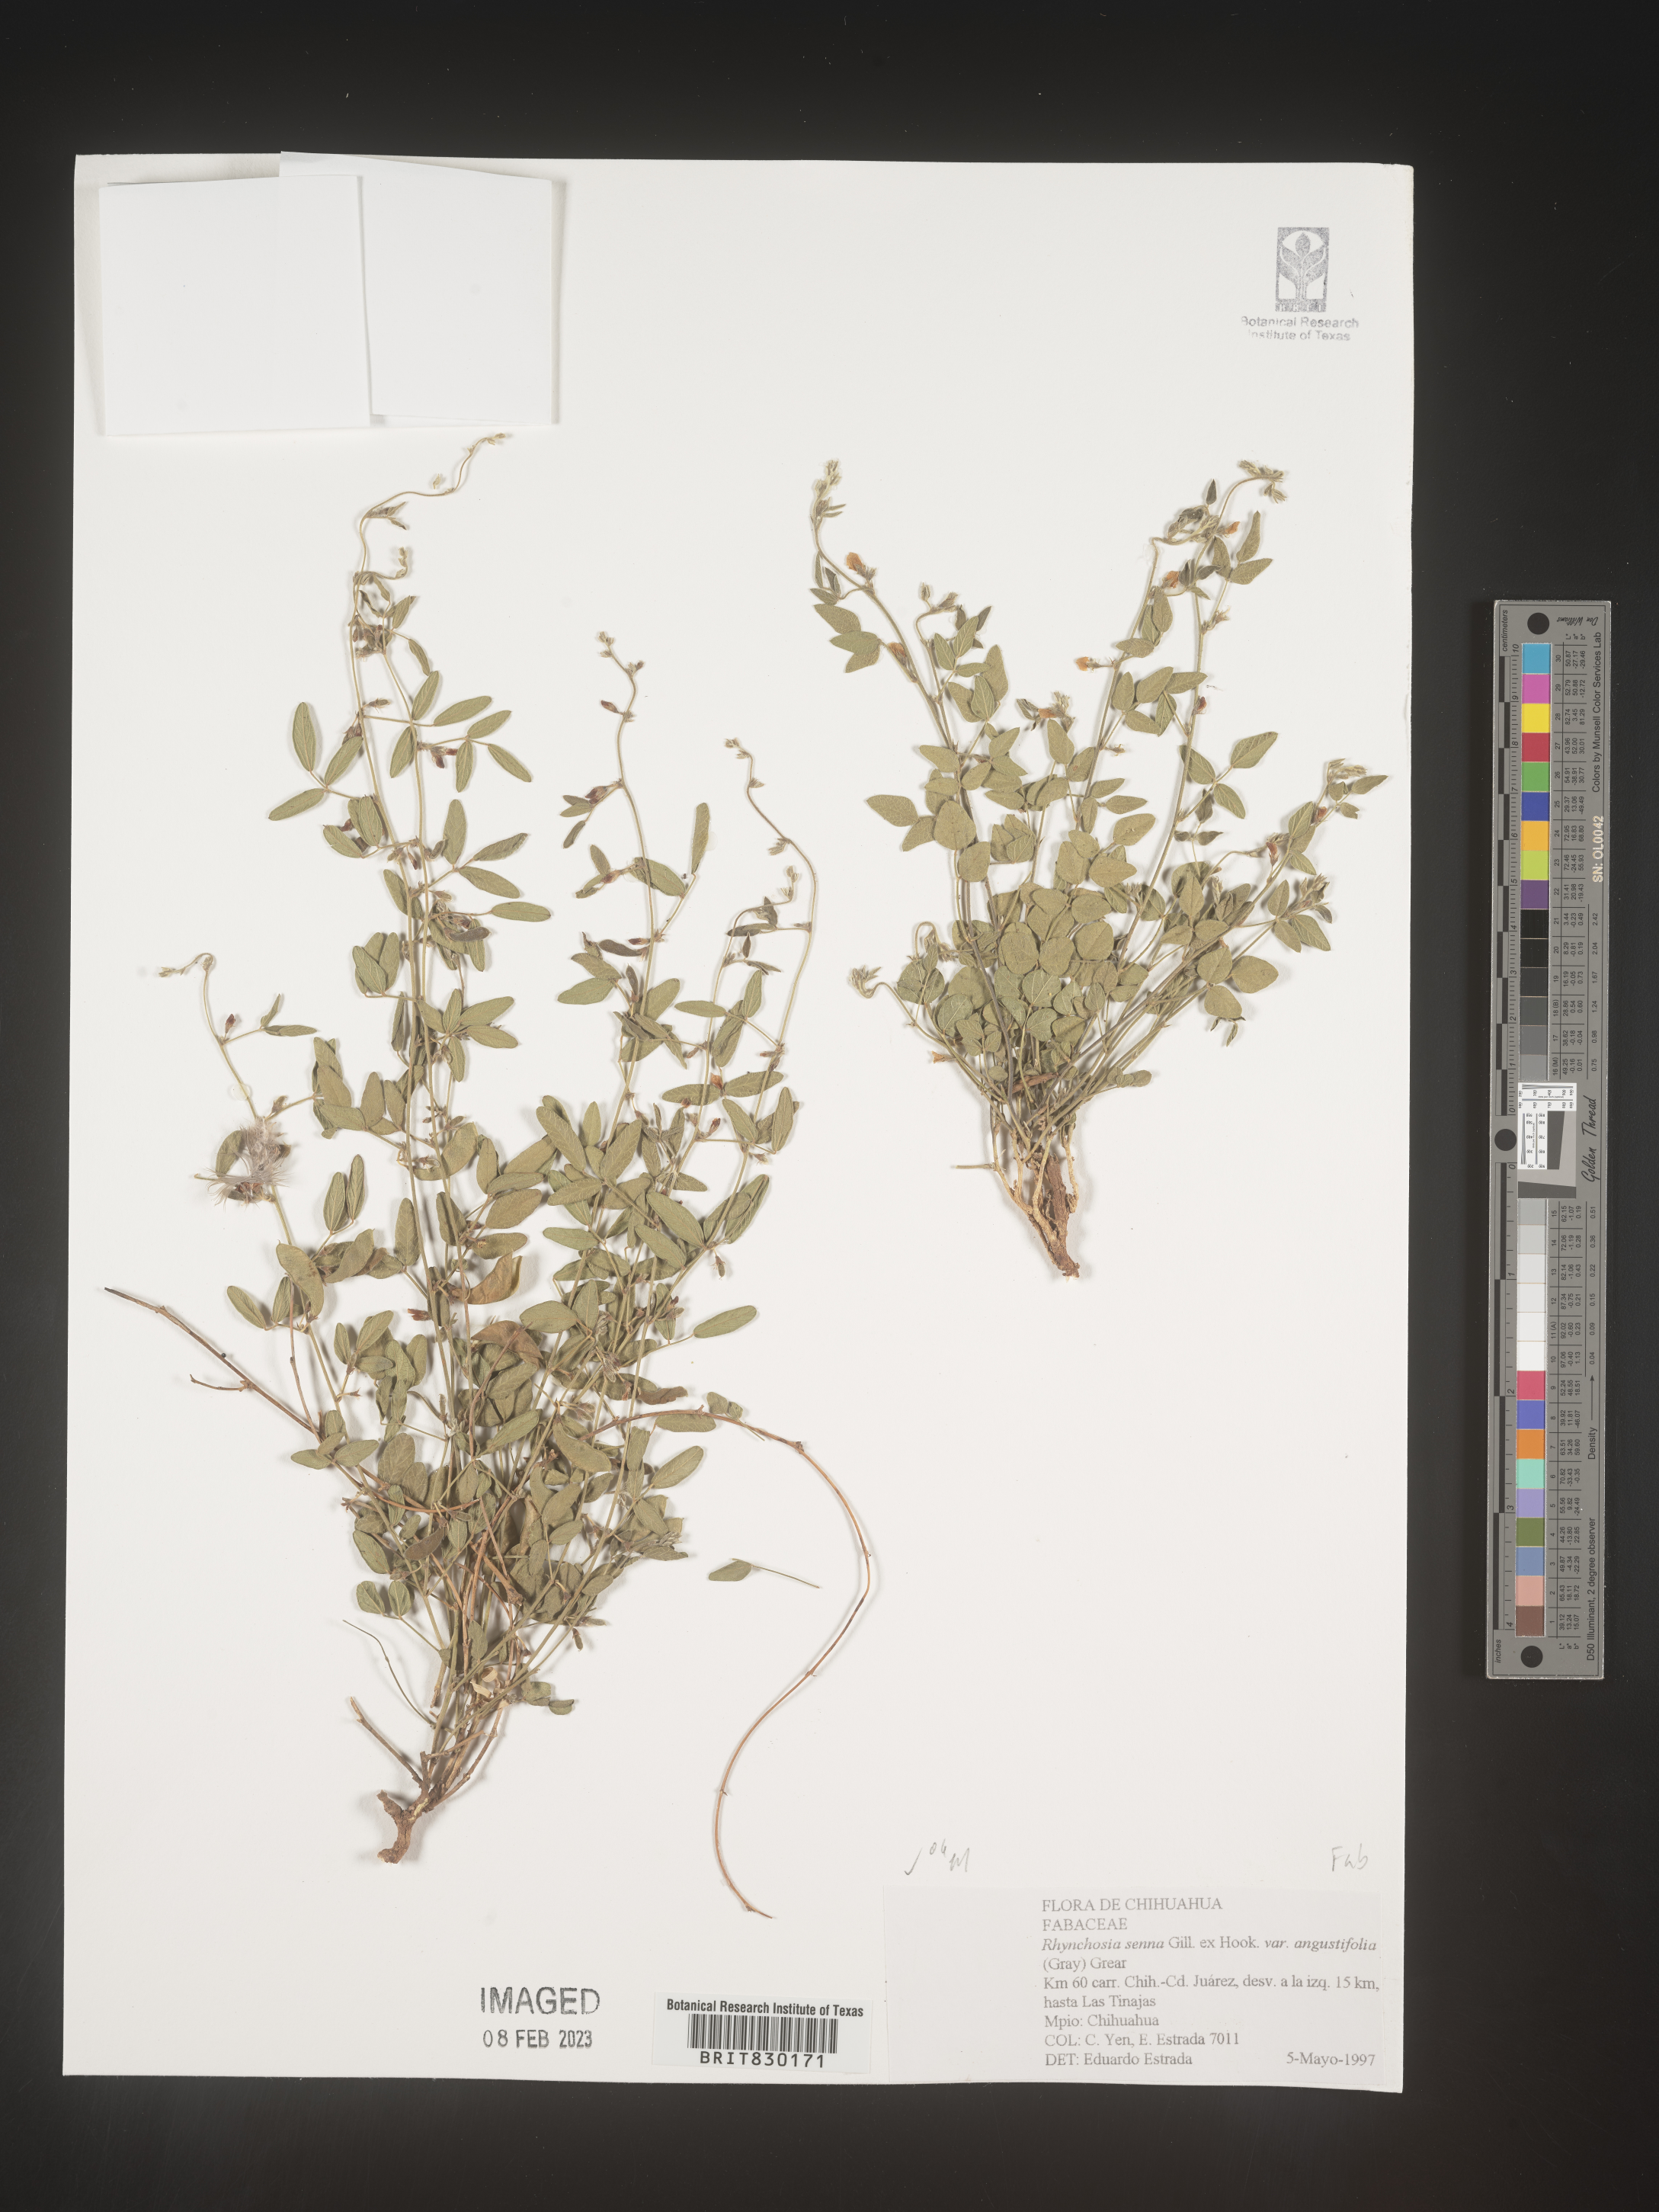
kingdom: Plantae
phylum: Tracheophyta
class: Magnoliopsida
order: Fabales
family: Fabaceae
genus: Rhynchosia
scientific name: Rhynchosia
